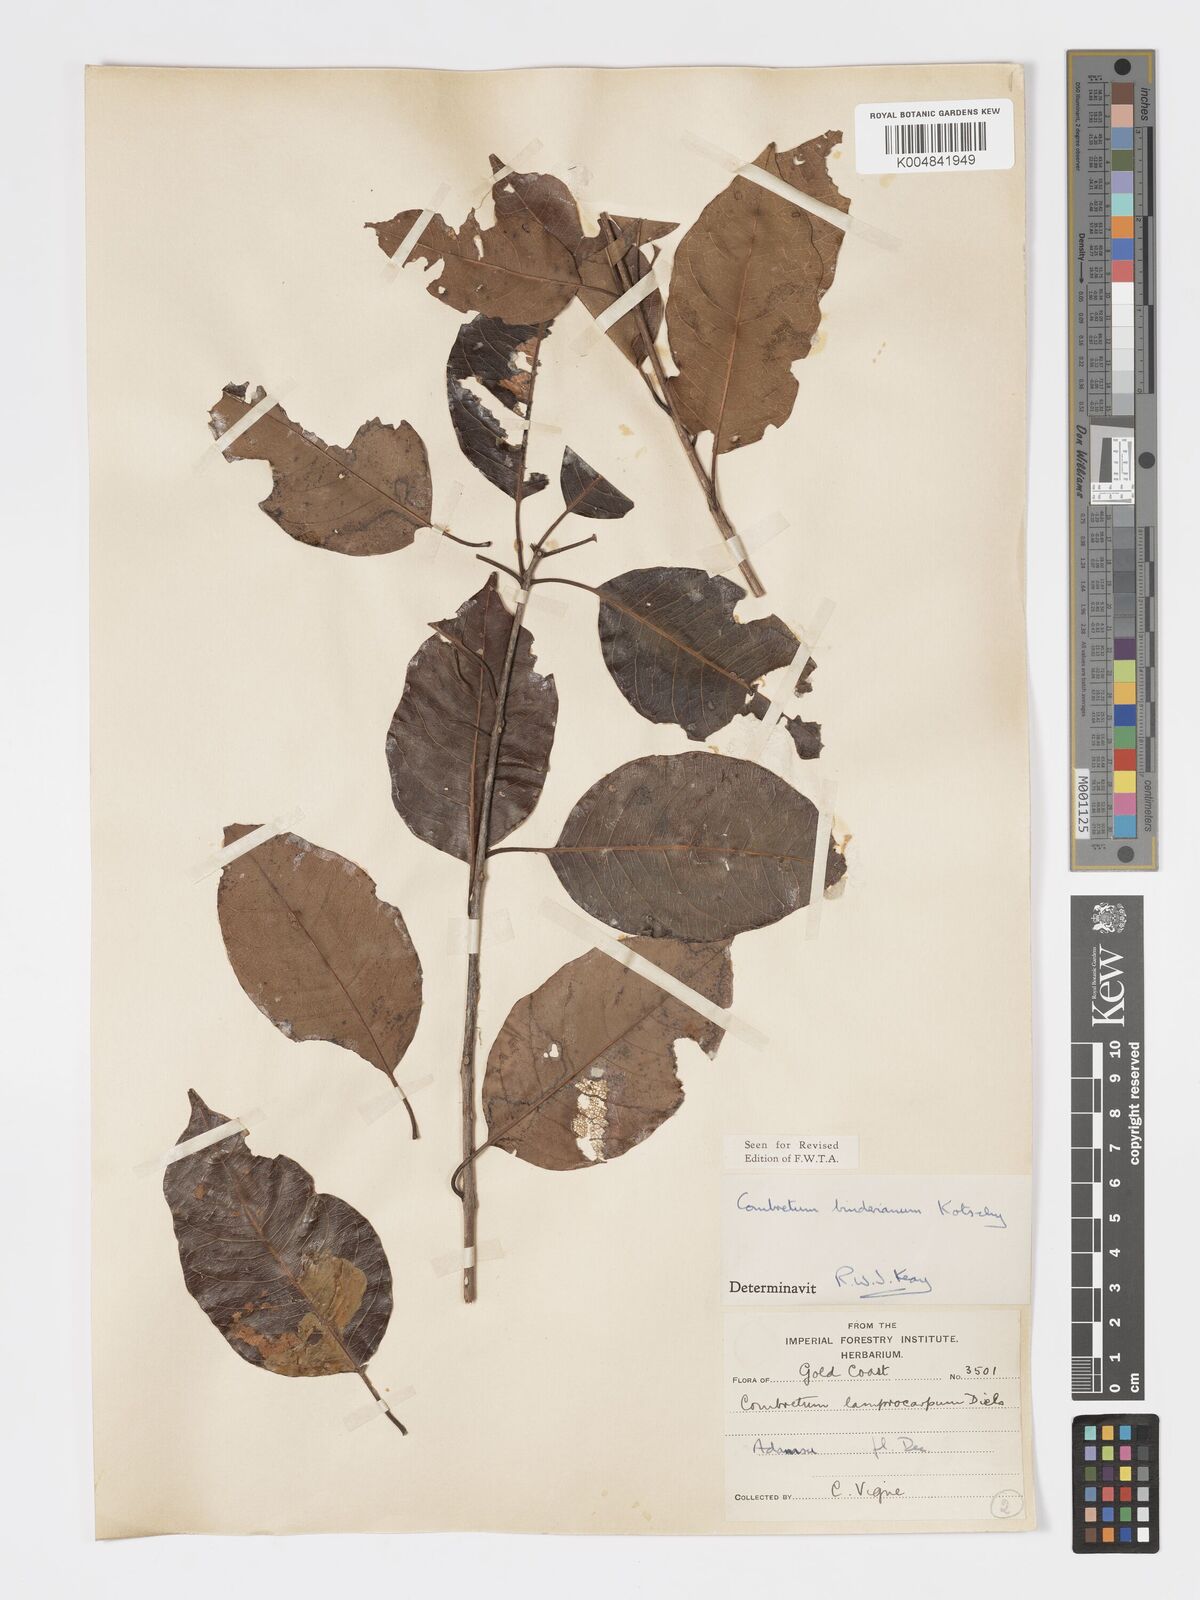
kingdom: Plantae
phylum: Tracheophyta
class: Magnoliopsida
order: Myrtales
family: Combretaceae
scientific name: Combretaceae
